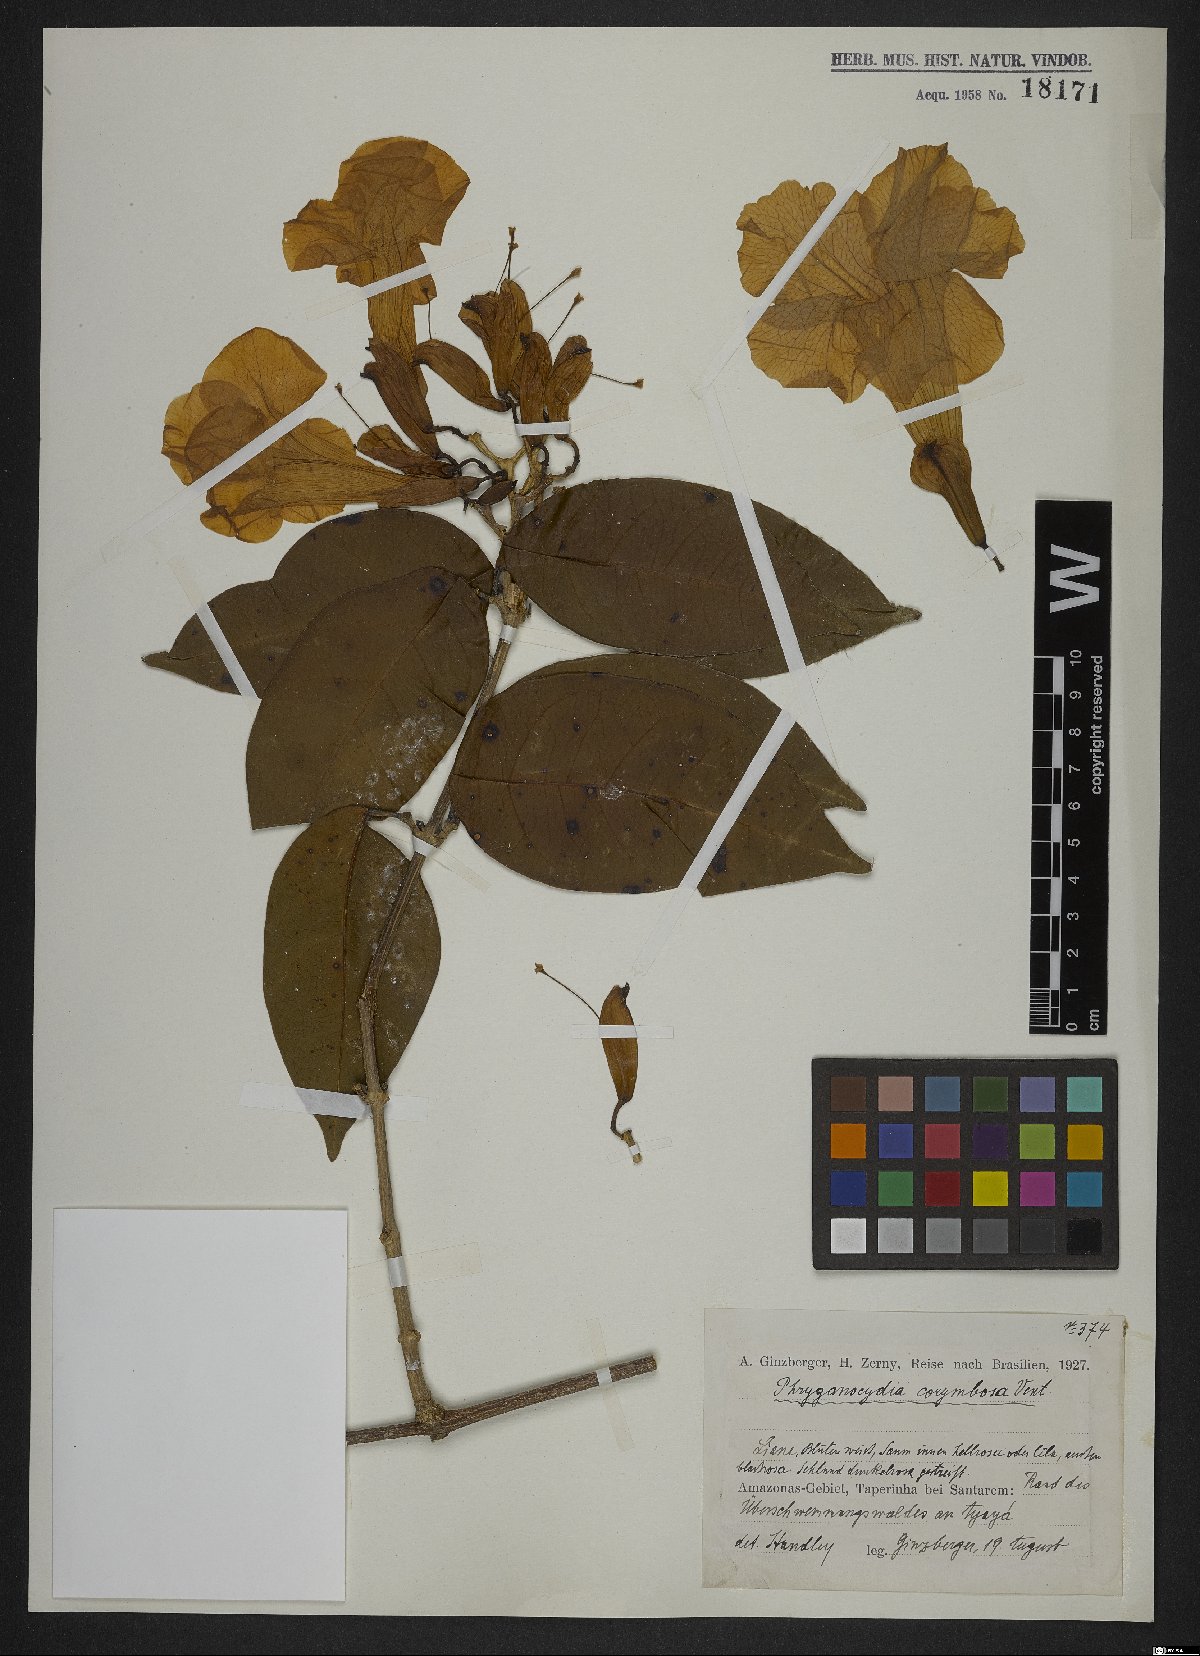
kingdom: Plantae
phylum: Tracheophyta
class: Magnoliopsida
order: Lamiales
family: Bignoniaceae
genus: Bignonia
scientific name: Bignonia corymbosa
